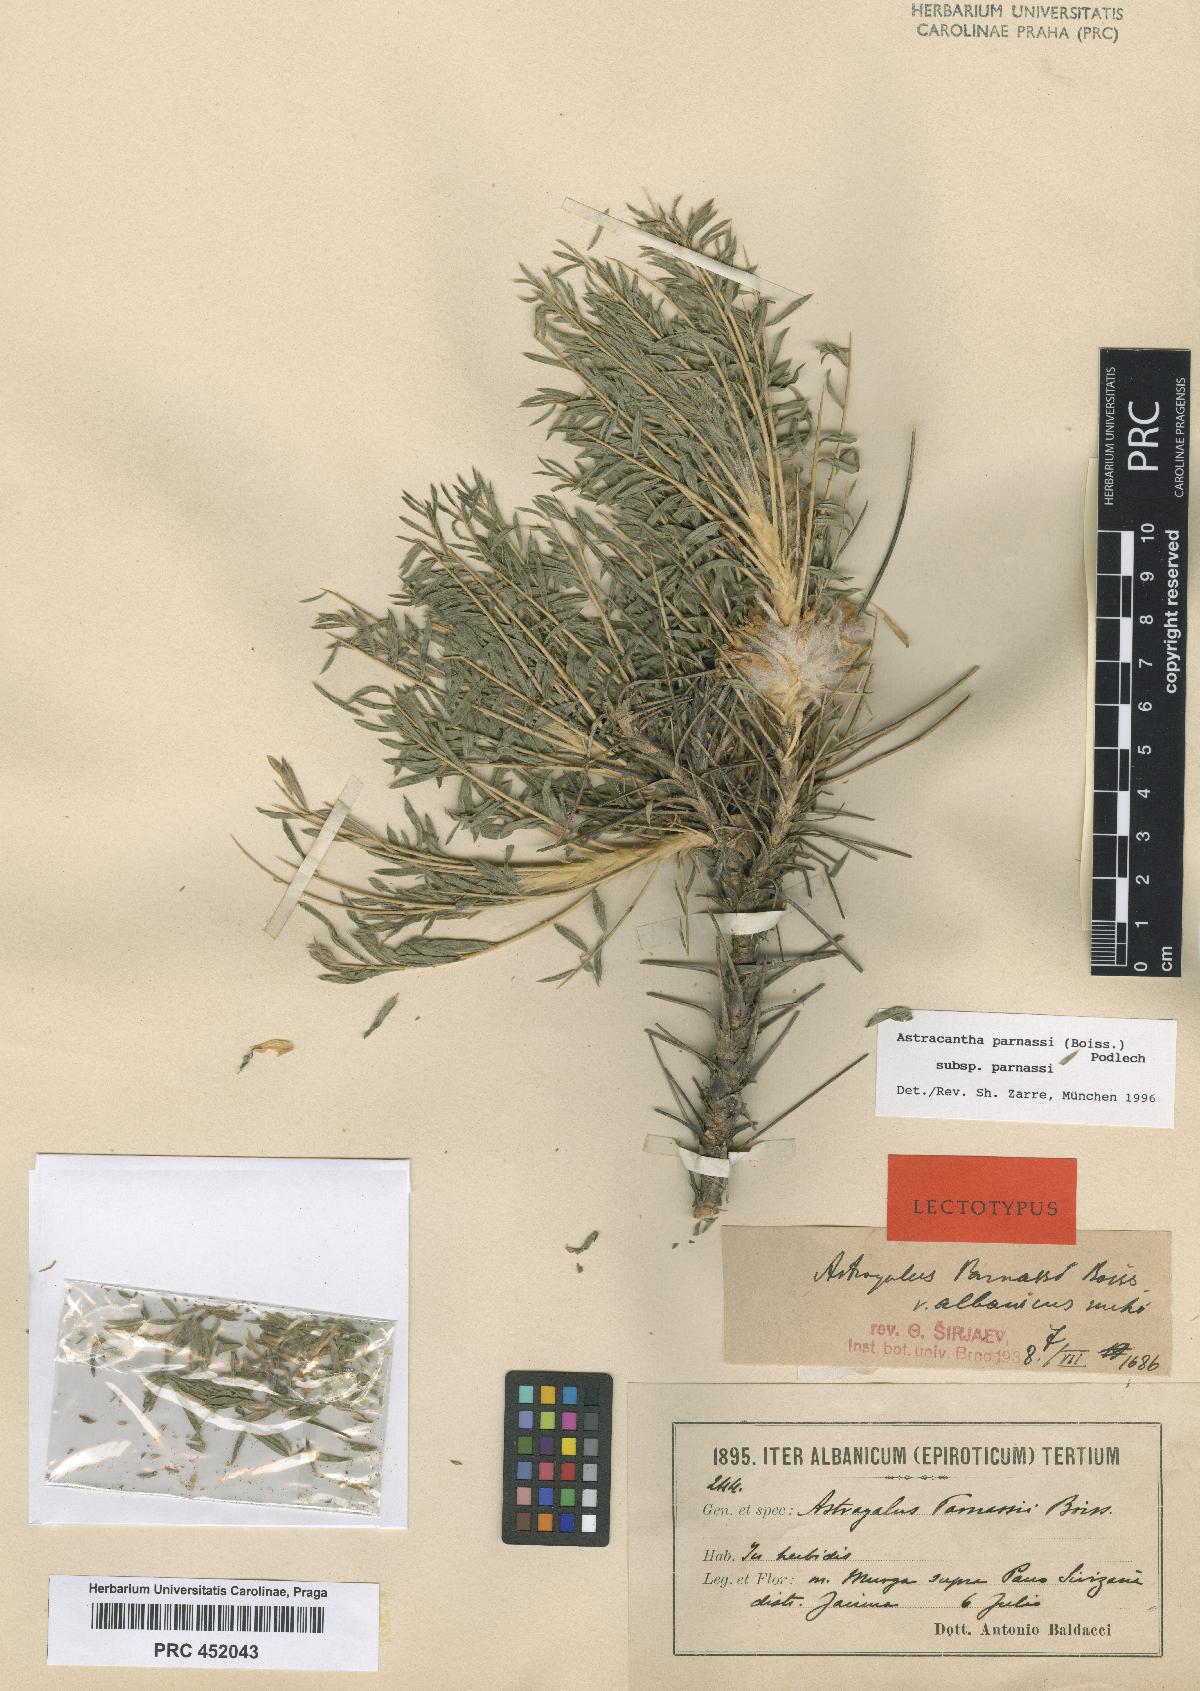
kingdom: Plantae
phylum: Tracheophyta
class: Magnoliopsida
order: Fabales
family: Fabaceae
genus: Astragalus
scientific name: Astragalus parnassi
